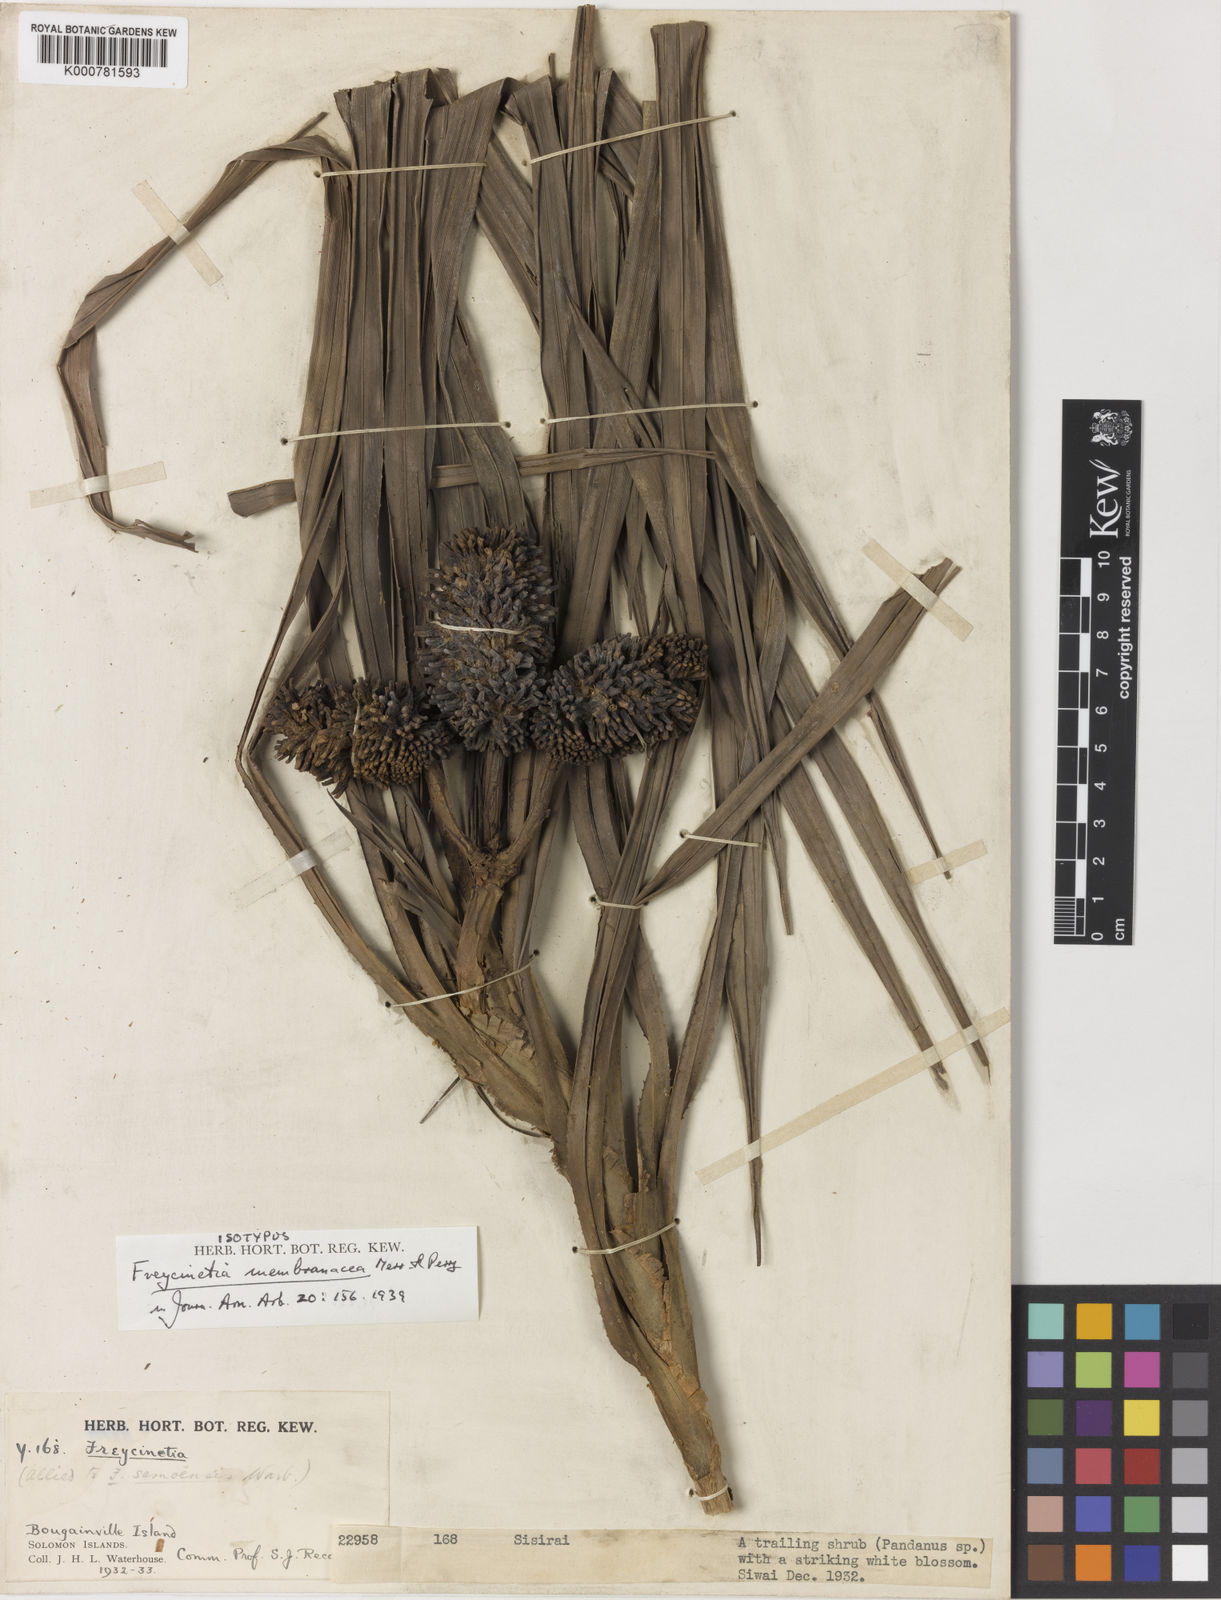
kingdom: Plantae
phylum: Tracheophyta
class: Liliopsida
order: Pandanales
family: Pandanaceae
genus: Freycinetia
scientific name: Freycinetia membranacea
